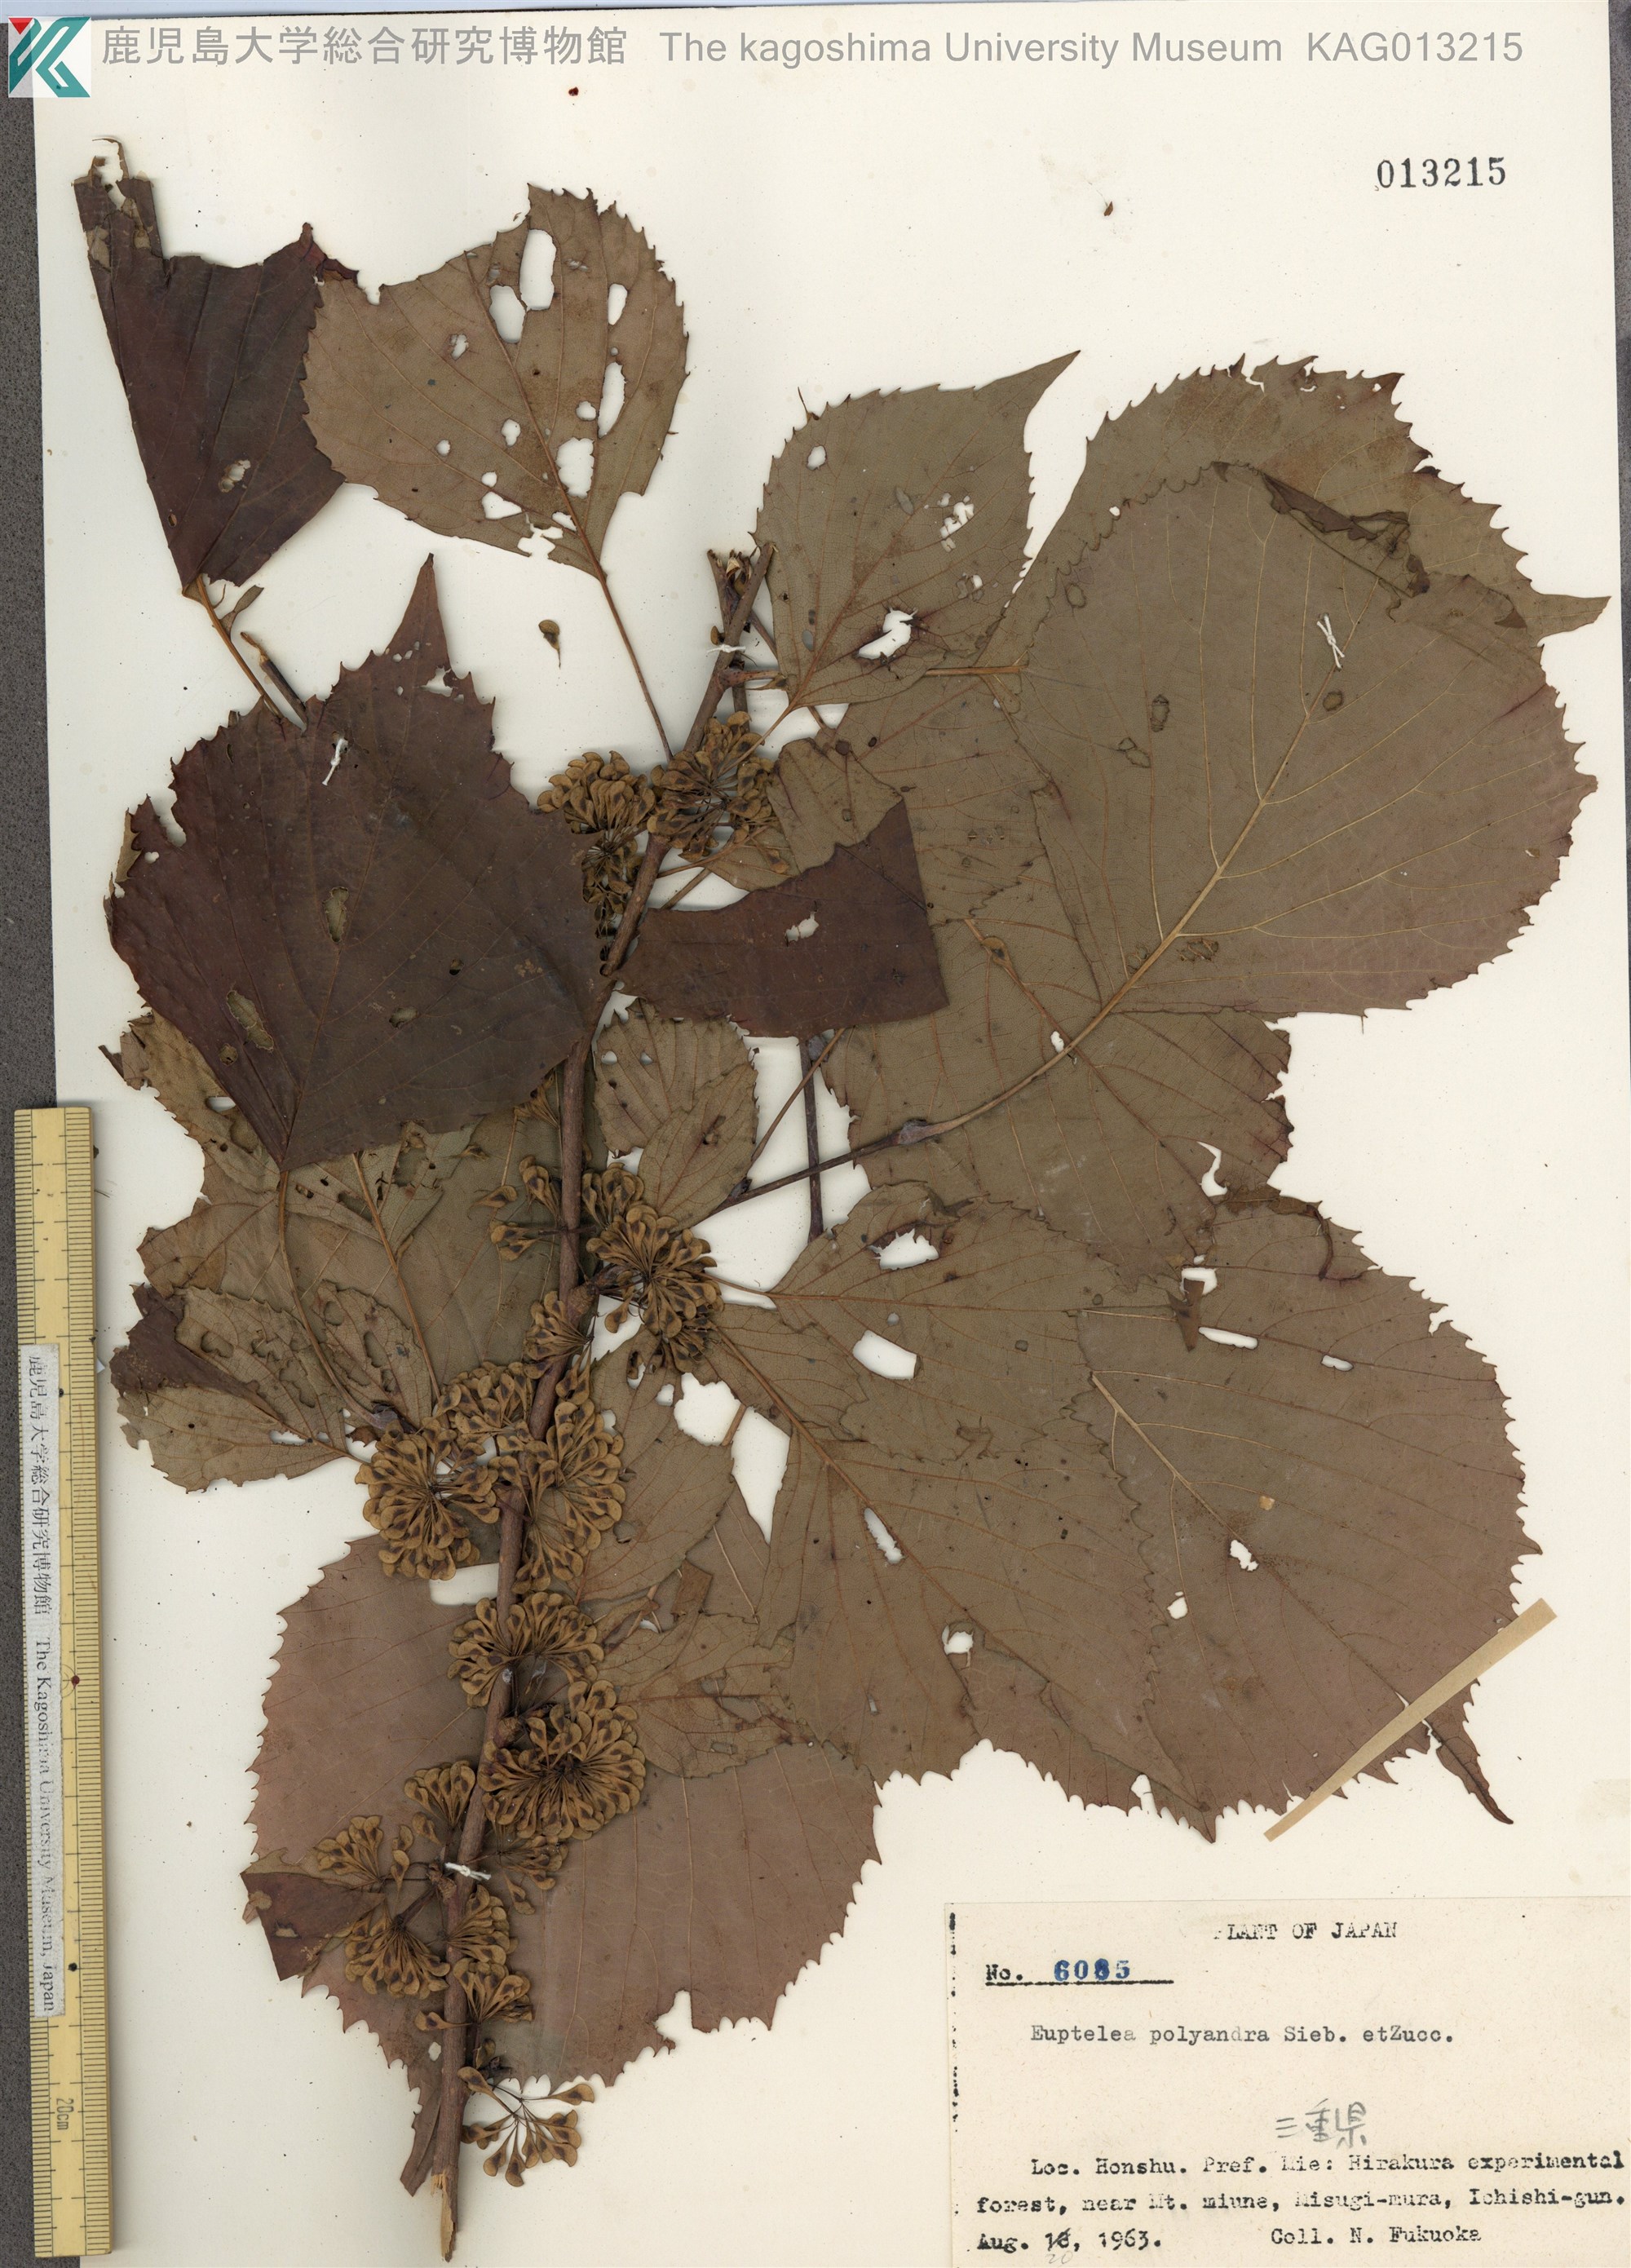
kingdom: Plantae
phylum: Tracheophyta
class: Magnoliopsida
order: Ranunculales
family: Eupteleaceae
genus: Euptelea
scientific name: Euptelea polyandra
